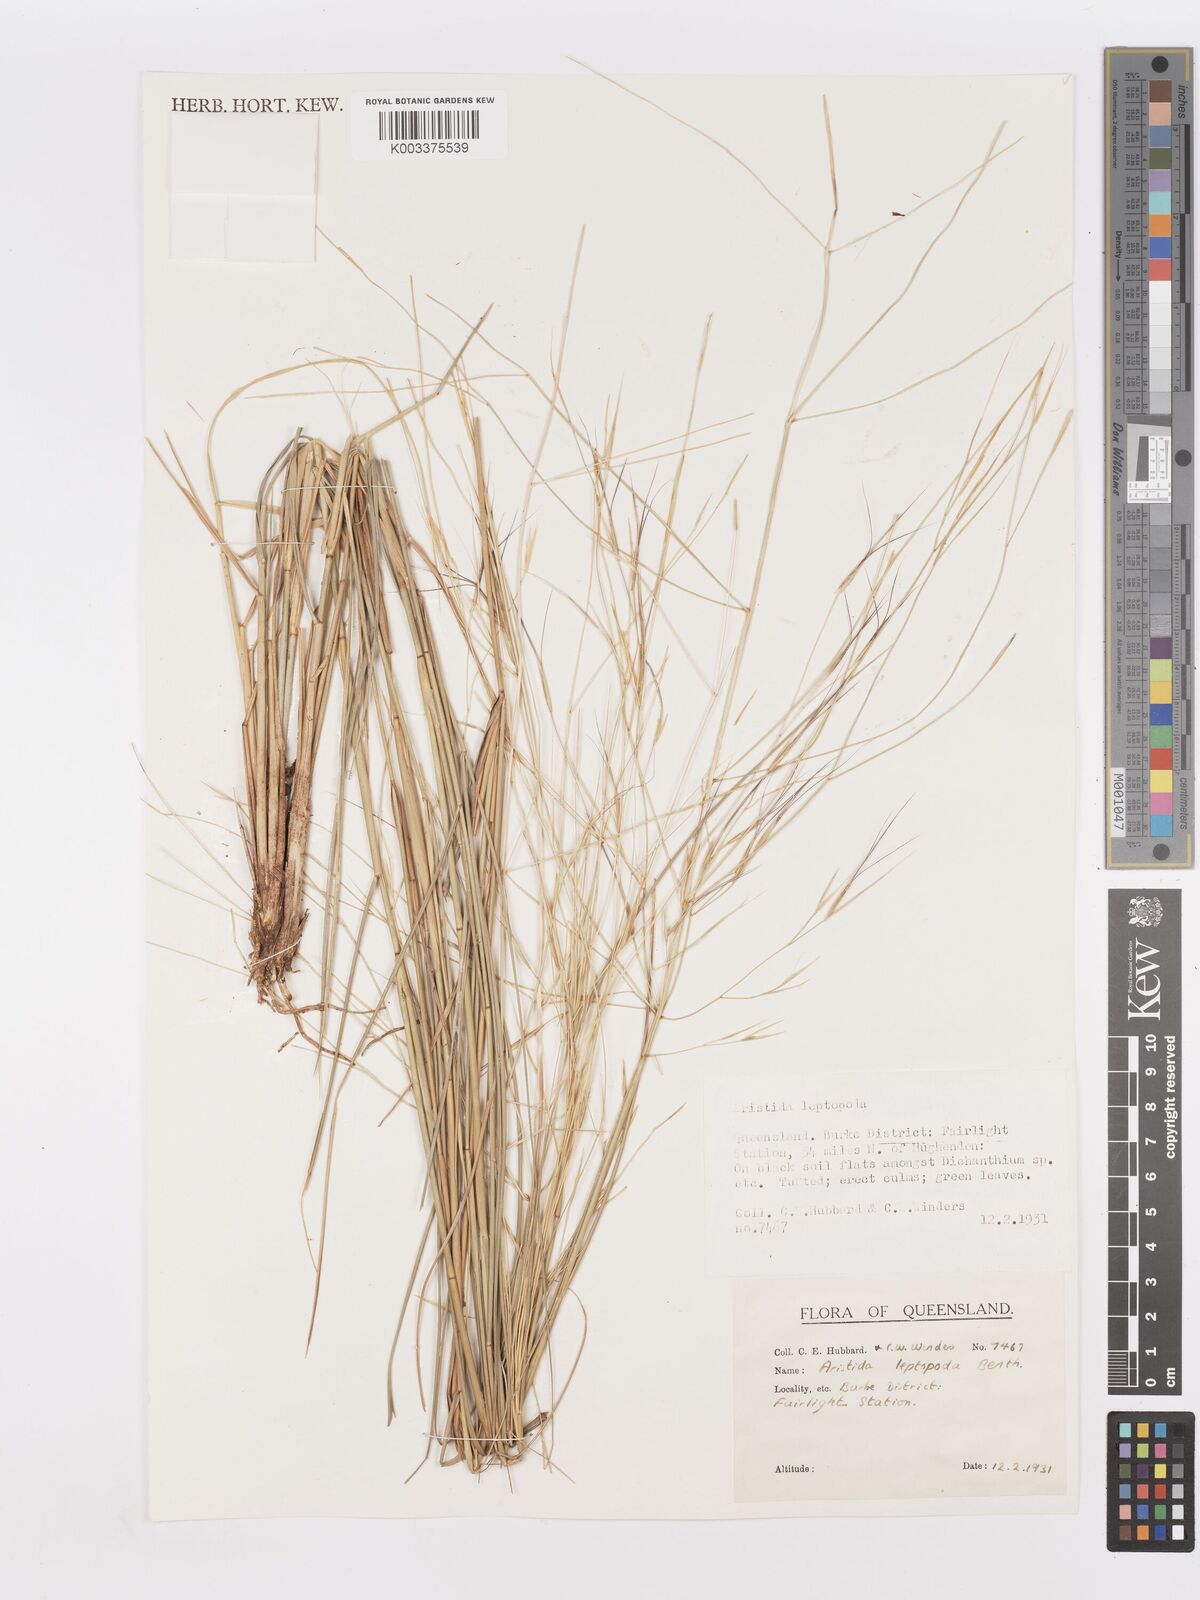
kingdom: Plantae
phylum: Tracheophyta
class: Liliopsida
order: Poales
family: Poaceae
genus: Aristida
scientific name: Aristida leptopoda
